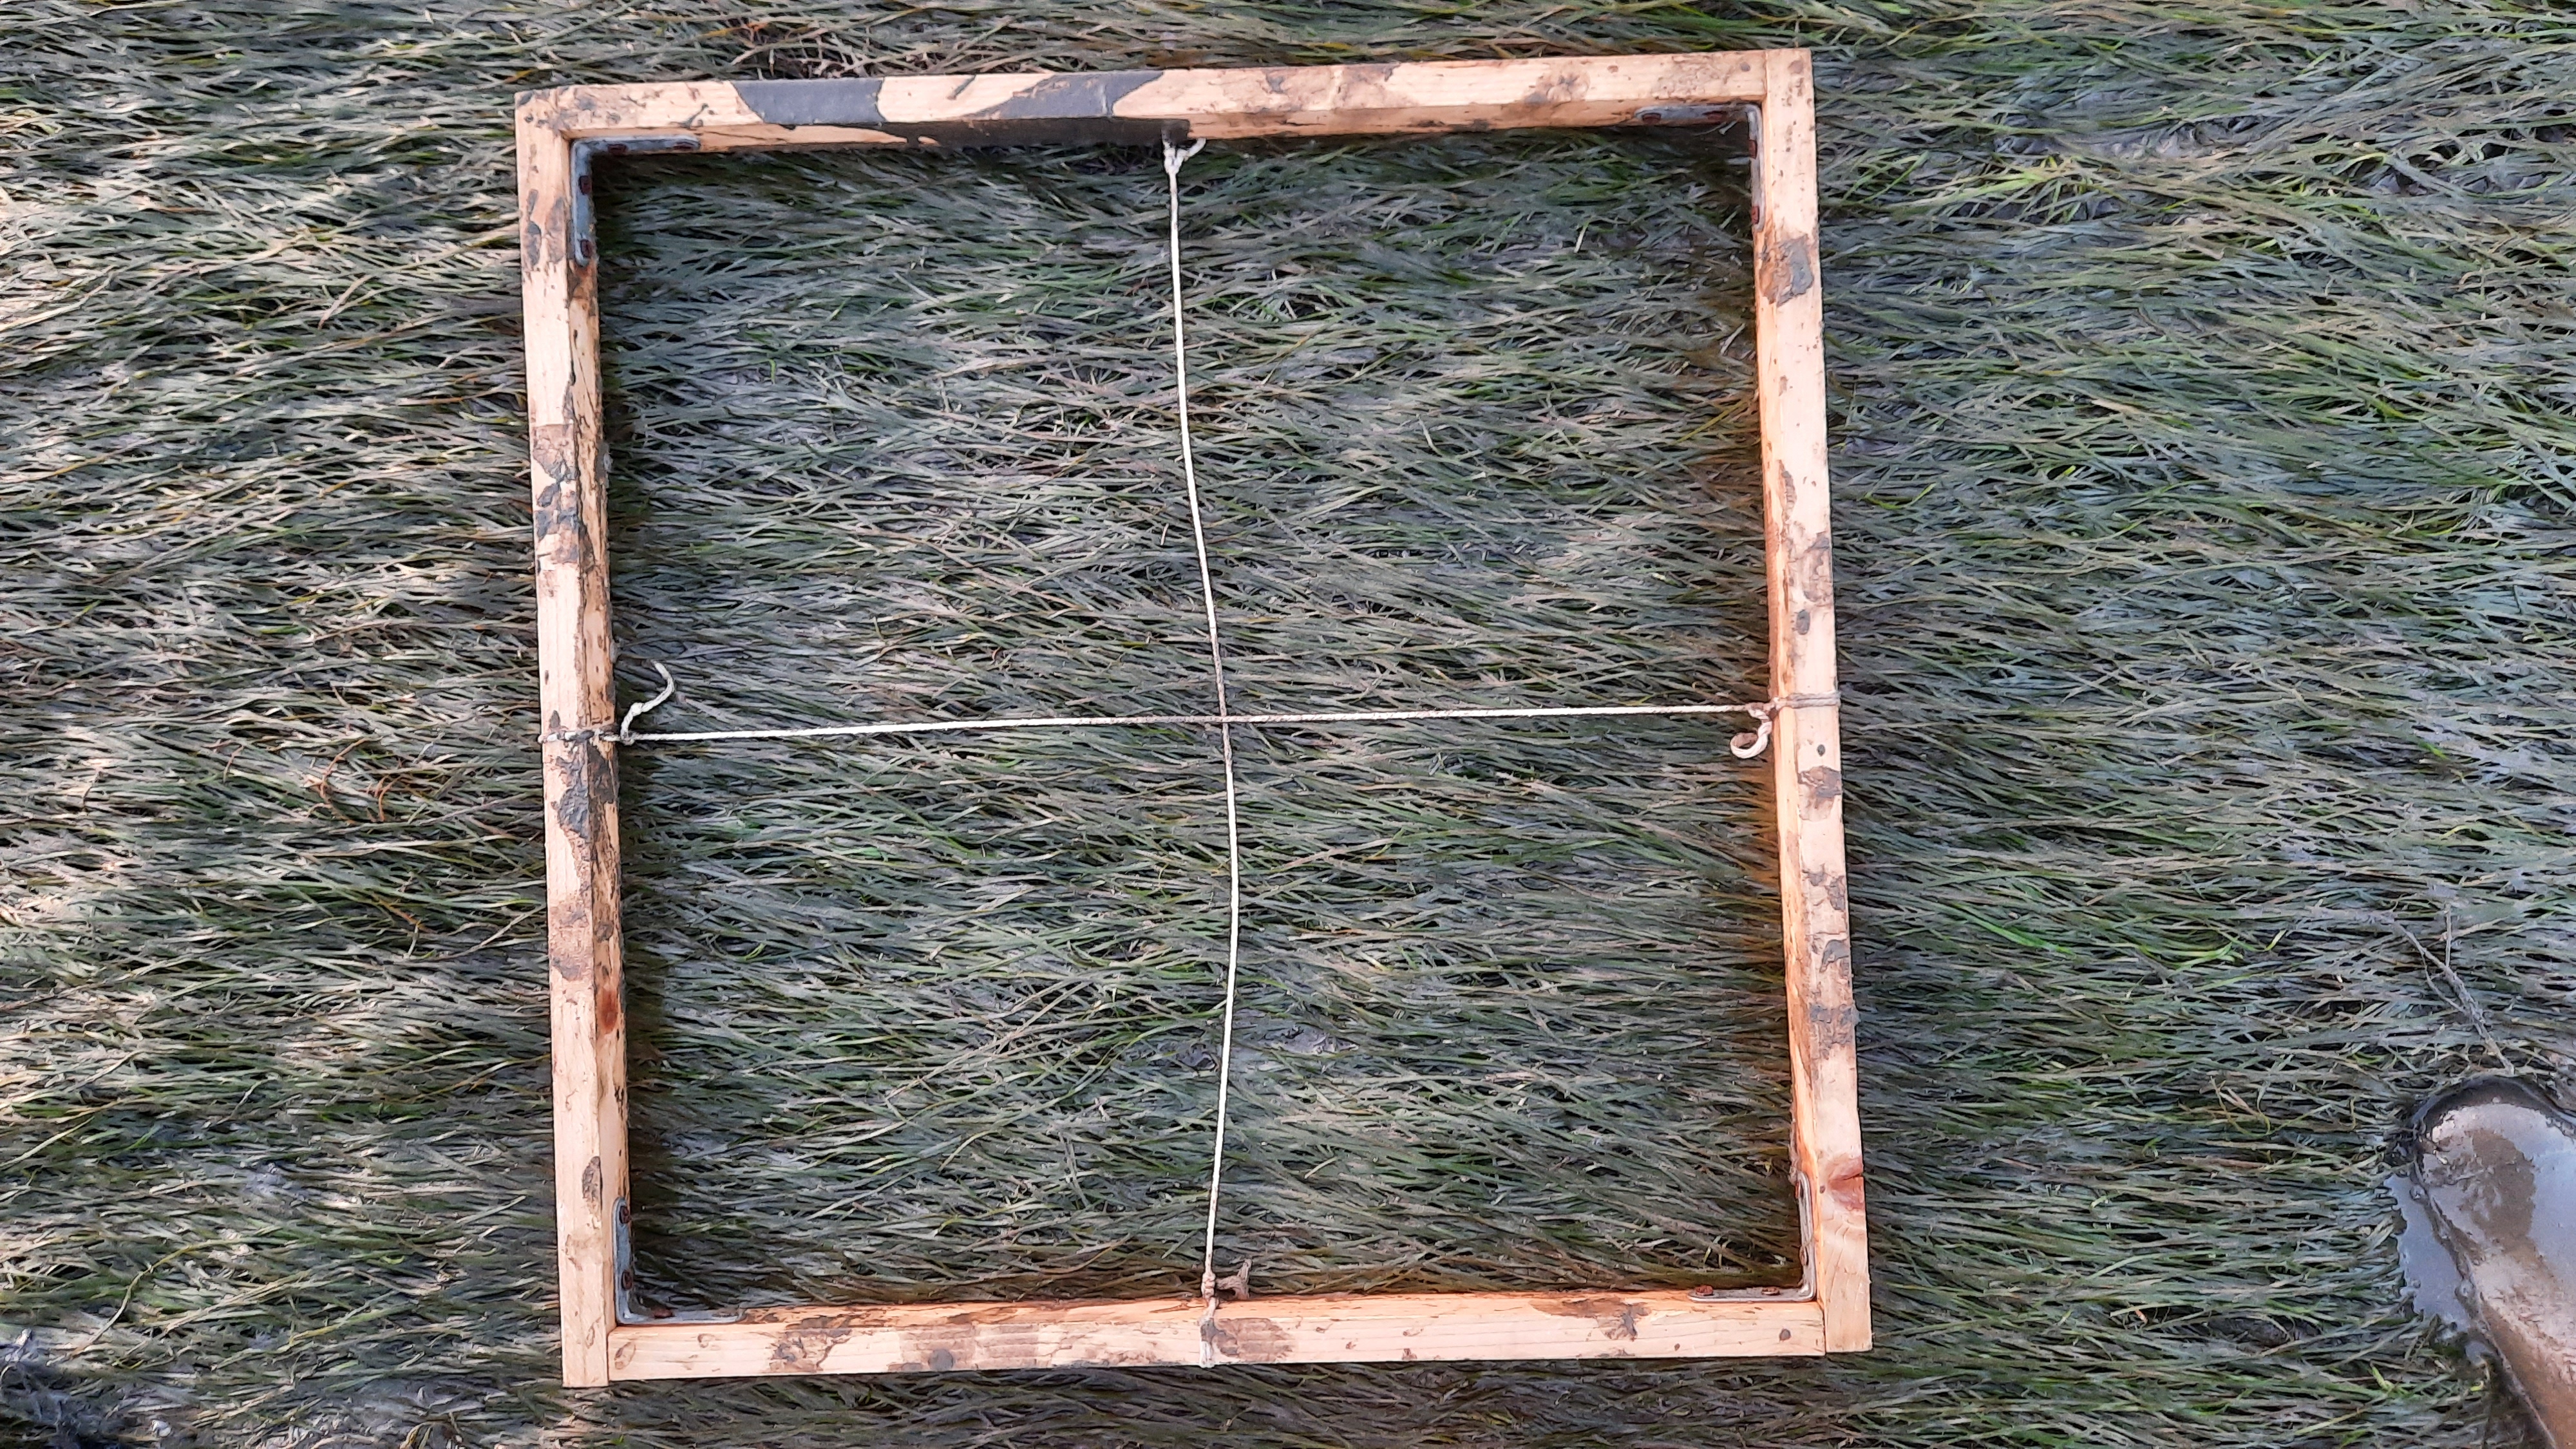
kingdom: Plantae
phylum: Tracheophyta
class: Liliopsida
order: Alismatales
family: Zosteraceae
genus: Zostera
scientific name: Zostera noltii
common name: Dwarf eelgrass
